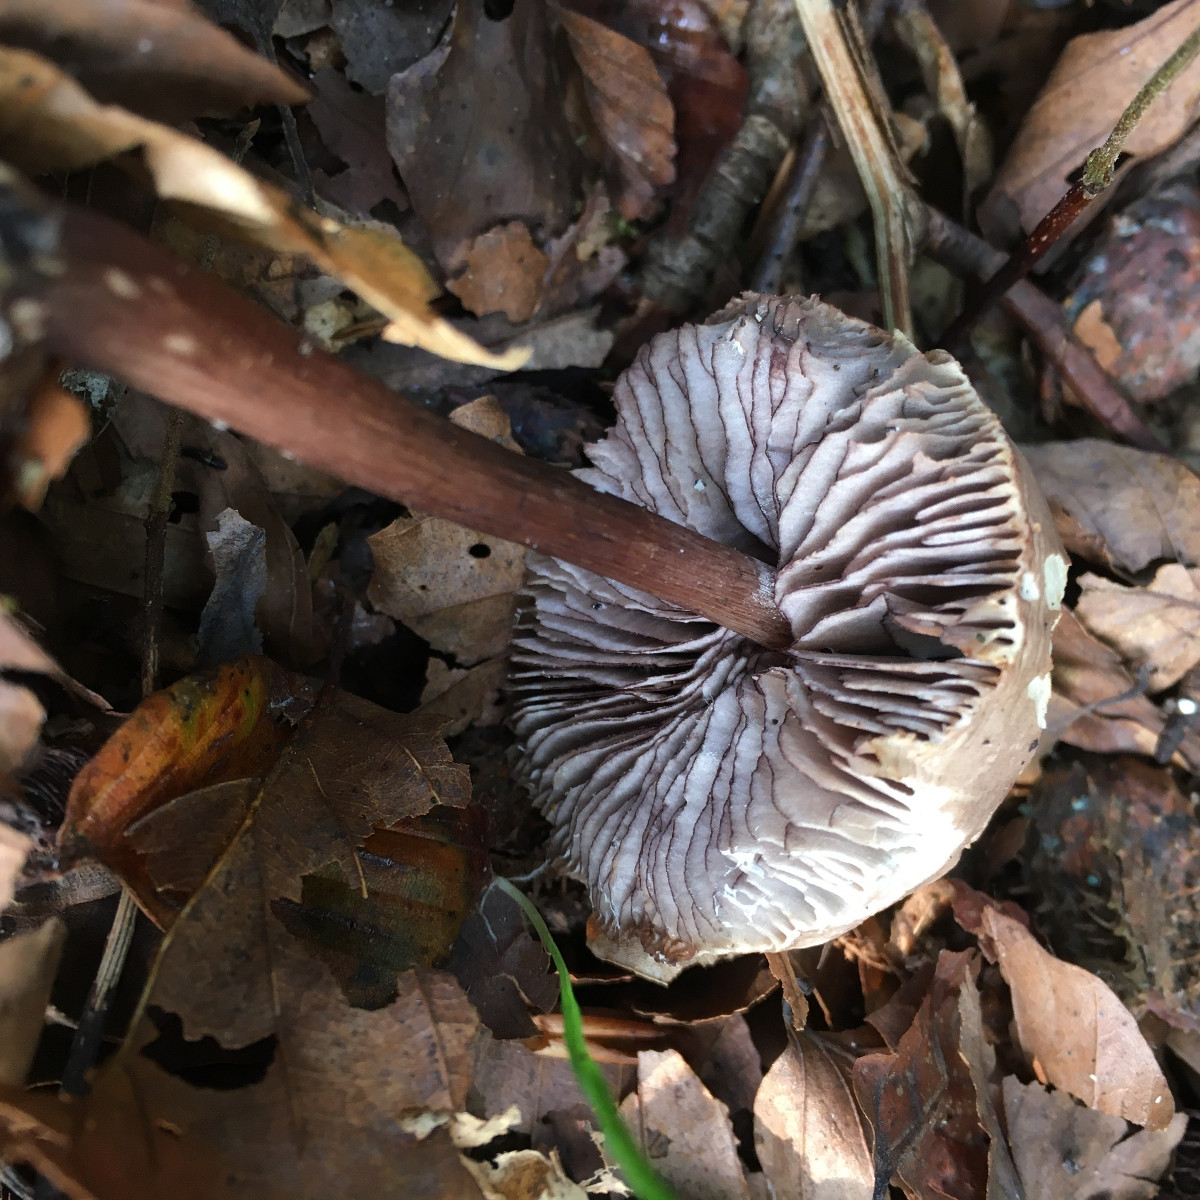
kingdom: Fungi
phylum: Basidiomycota
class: Agaricomycetes
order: Agaricales
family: Mycenaceae
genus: Mycena
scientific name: Mycena pelianthina
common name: mørkbladet huesvamp
